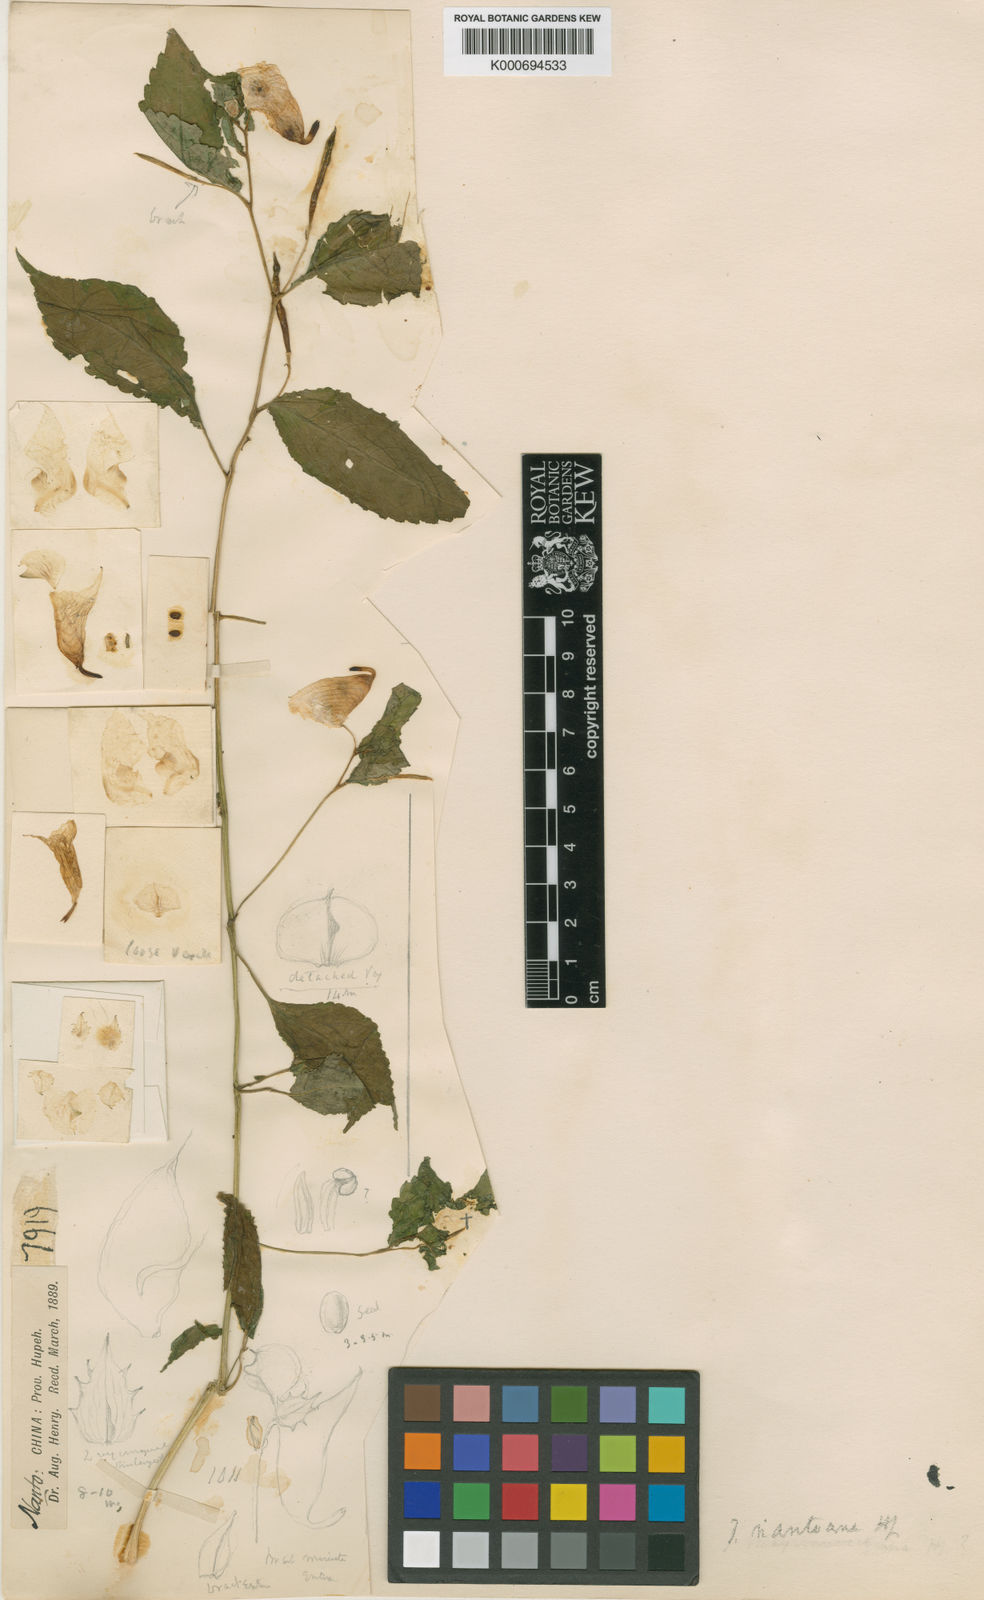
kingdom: Plantae
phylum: Tracheophyta
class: Magnoliopsida
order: Ericales
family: Balsaminaceae
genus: Impatiens
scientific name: Impatiens
